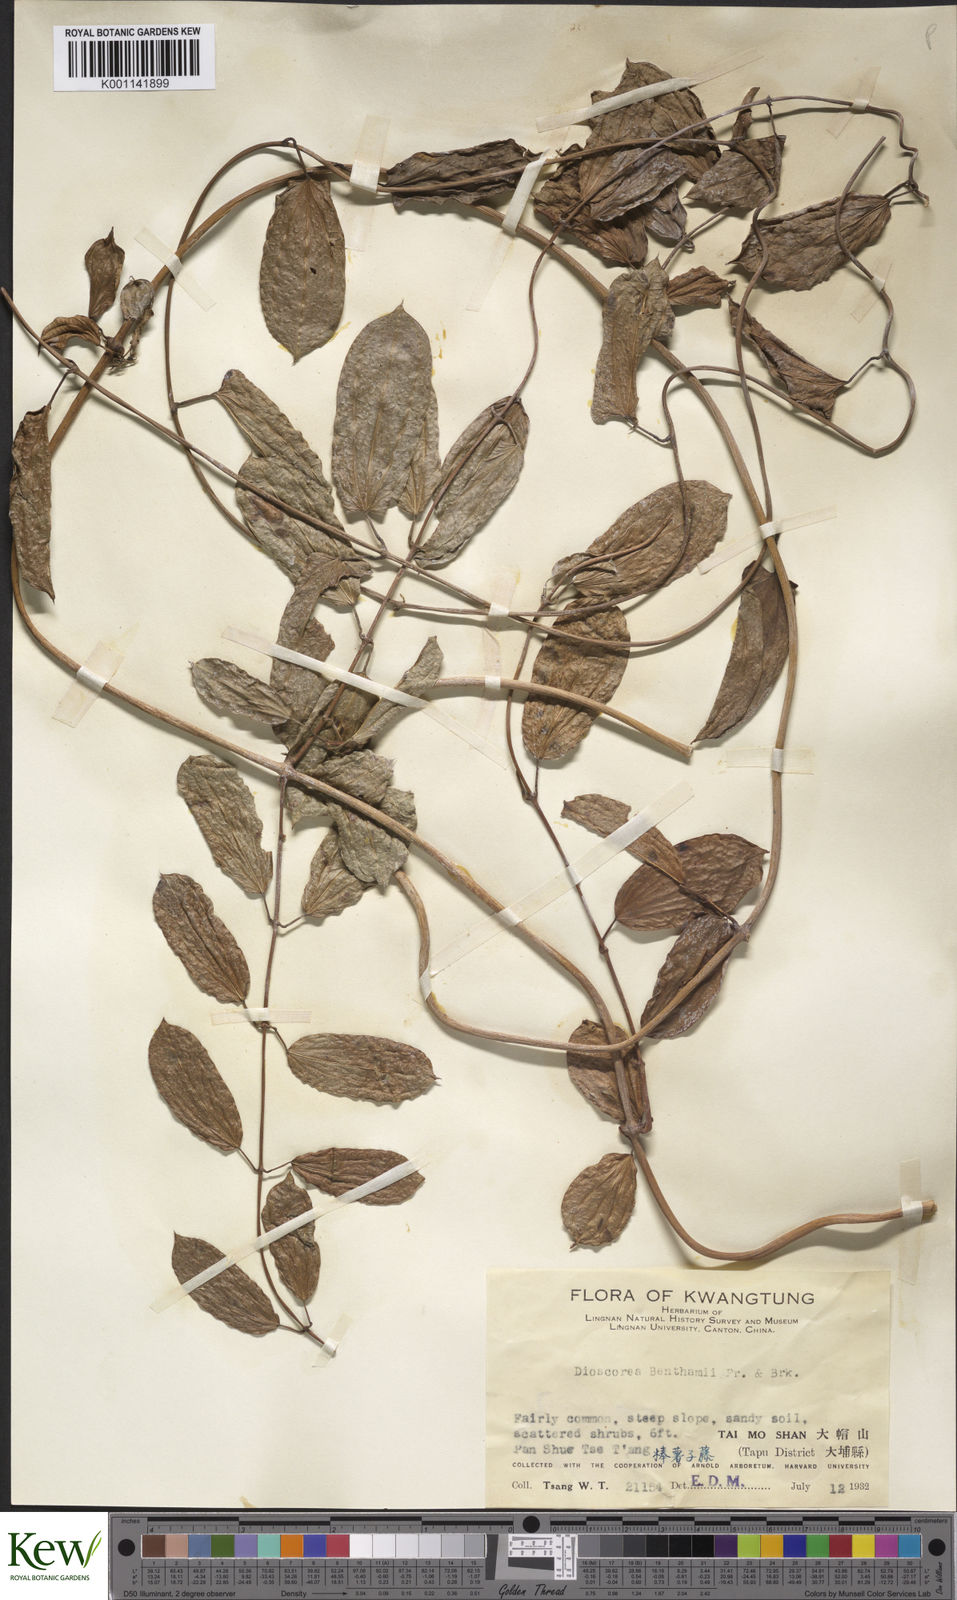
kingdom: Plantae
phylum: Tracheophyta
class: Liliopsida
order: Dioscoreales
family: Dioscoreaceae
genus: Dioscorea
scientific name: Dioscorea benthamii
